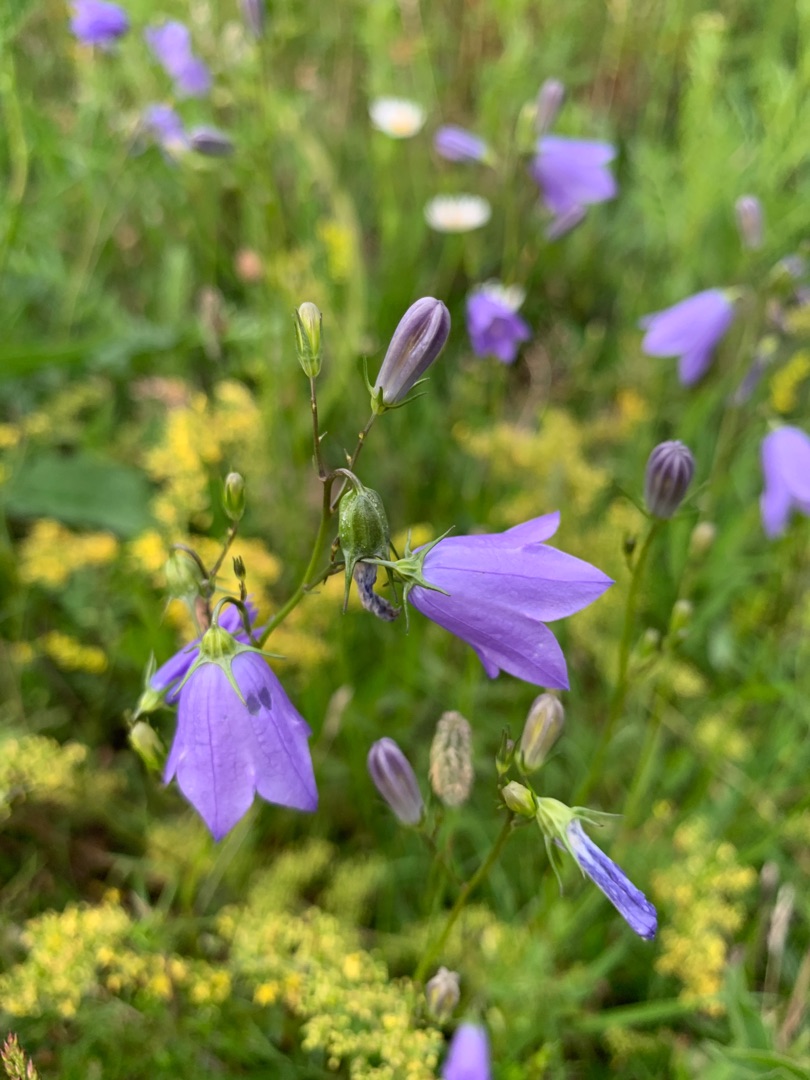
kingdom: Plantae
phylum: Tracheophyta
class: Magnoliopsida
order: Asterales
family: Campanulaceae
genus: Campanula
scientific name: Campanula rotundifolia
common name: Liden klokke
